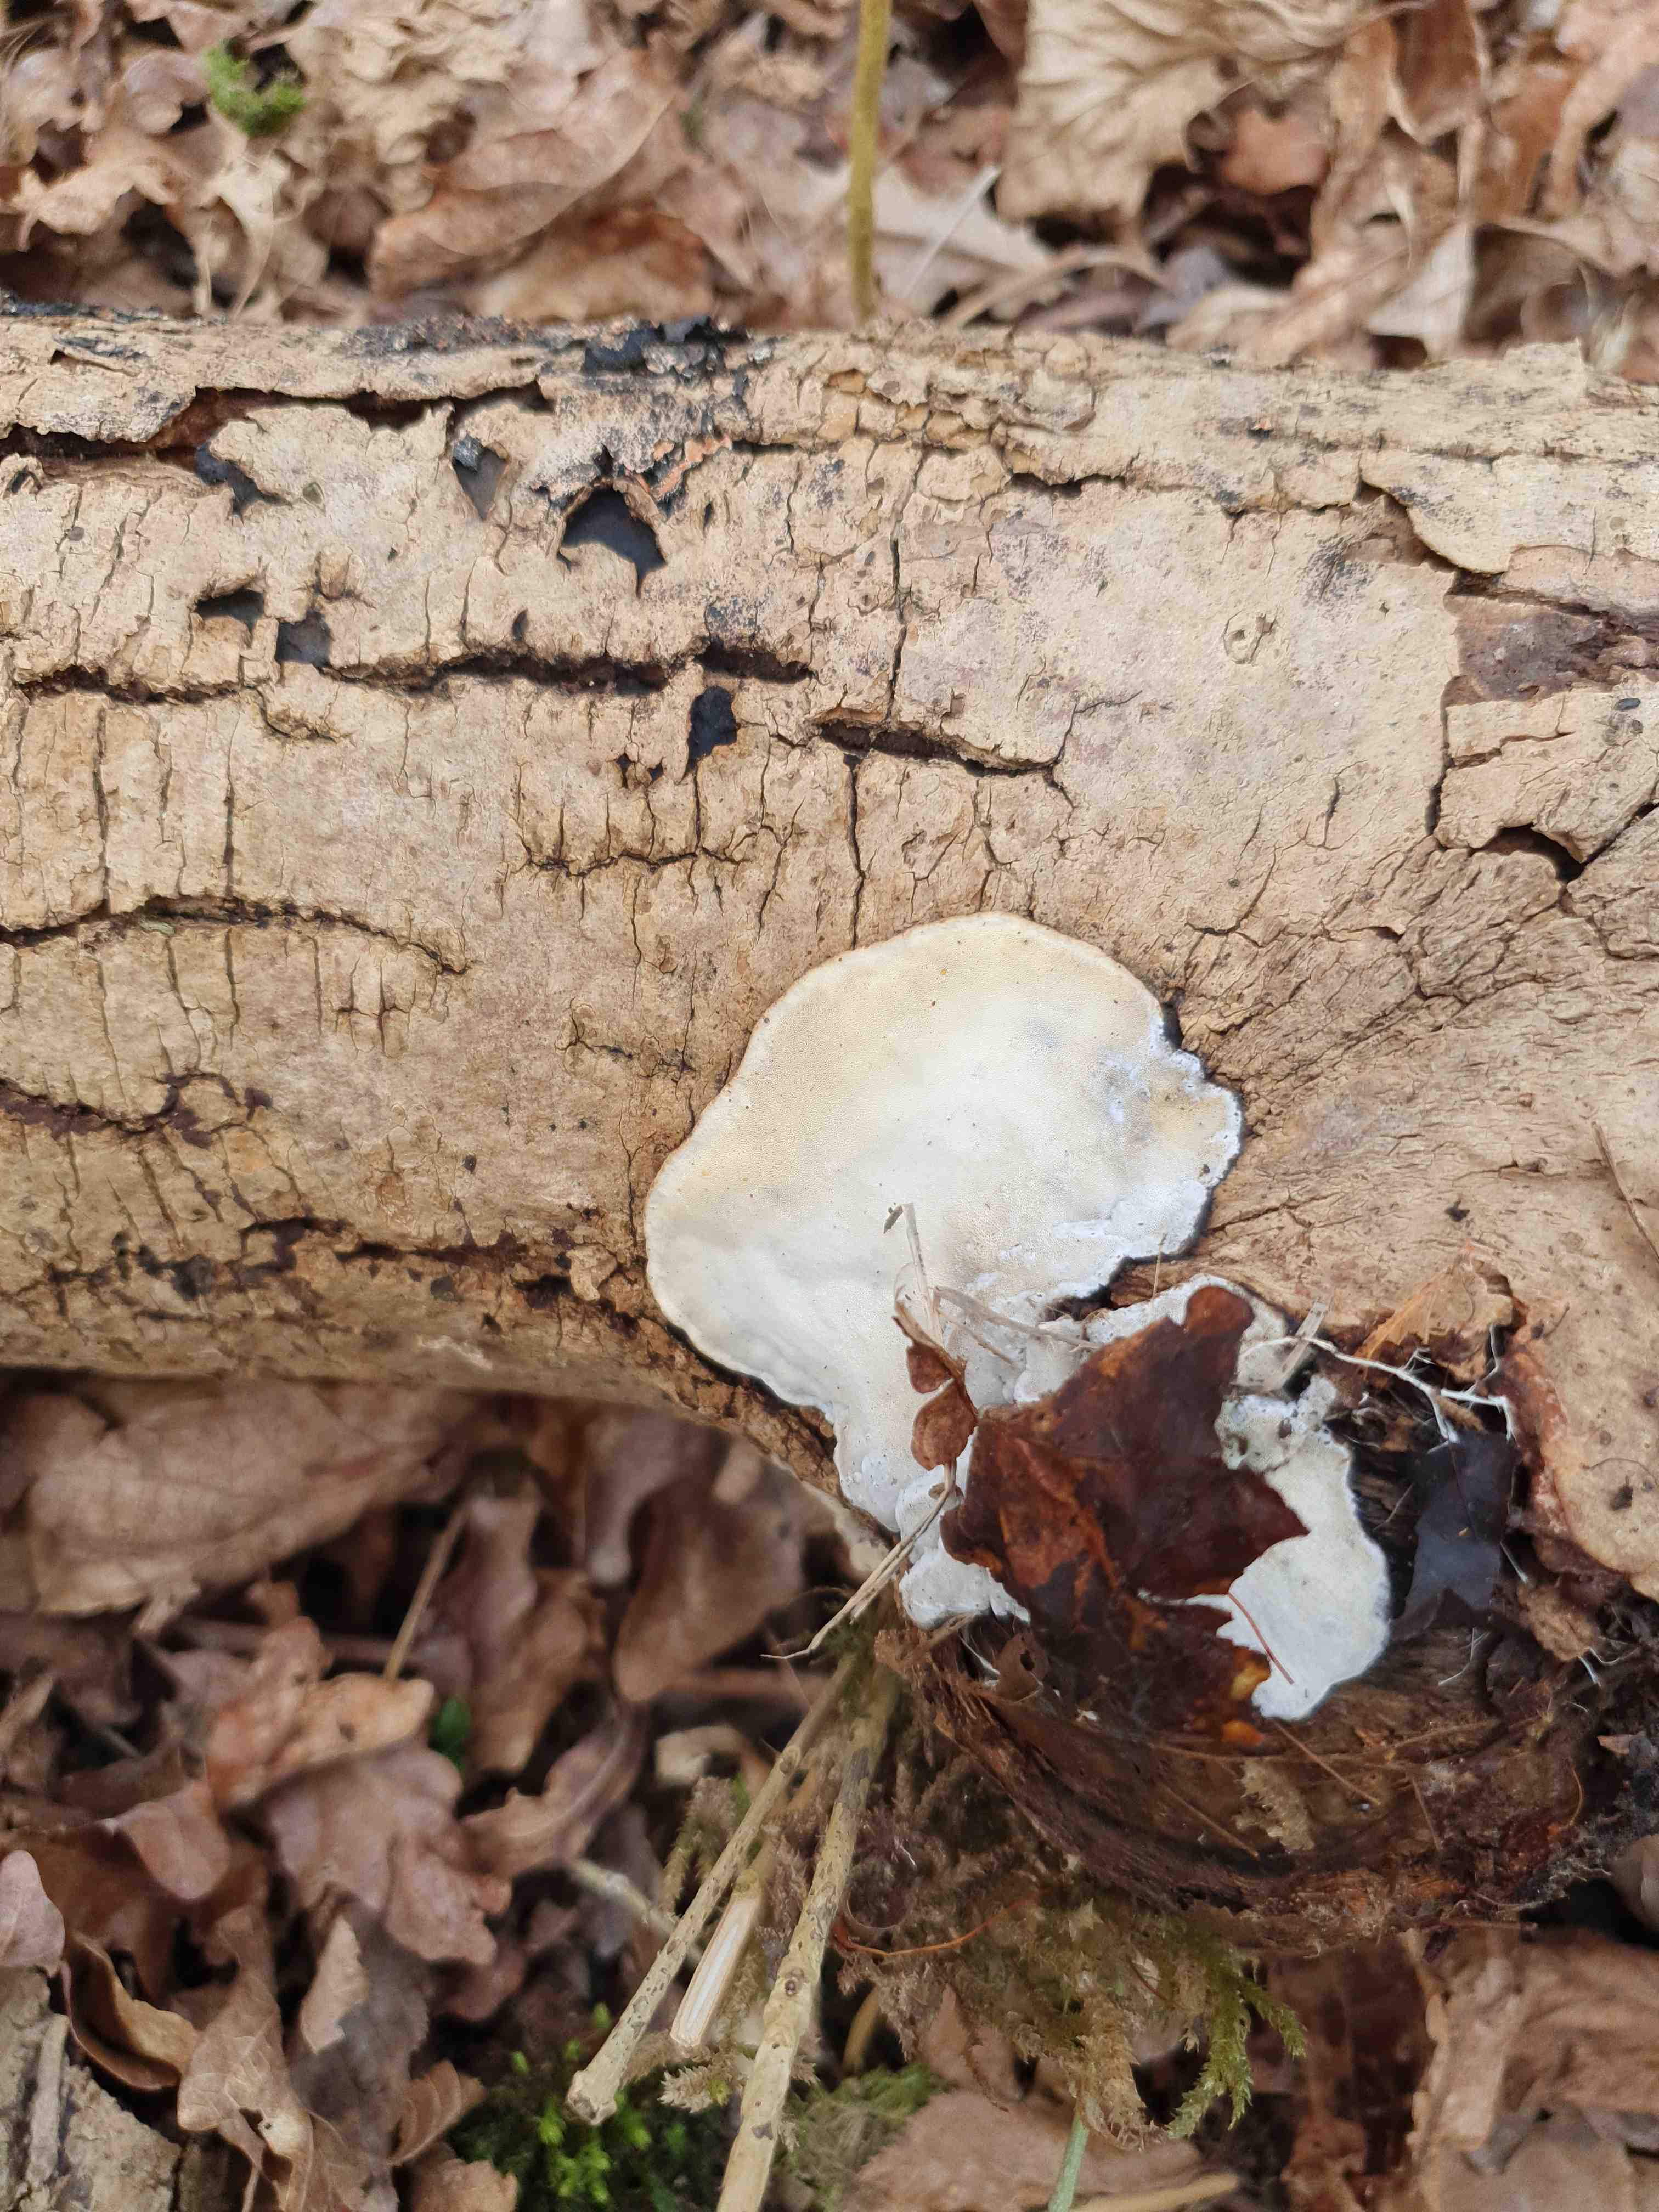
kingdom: Fungi
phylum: Basidiomycota
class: Agaricomycetes
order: Polyporales
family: Incrustoporiaceae
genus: Skeletocutis
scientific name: Skeletocutis nemoralis
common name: stor krystalporesvamp
